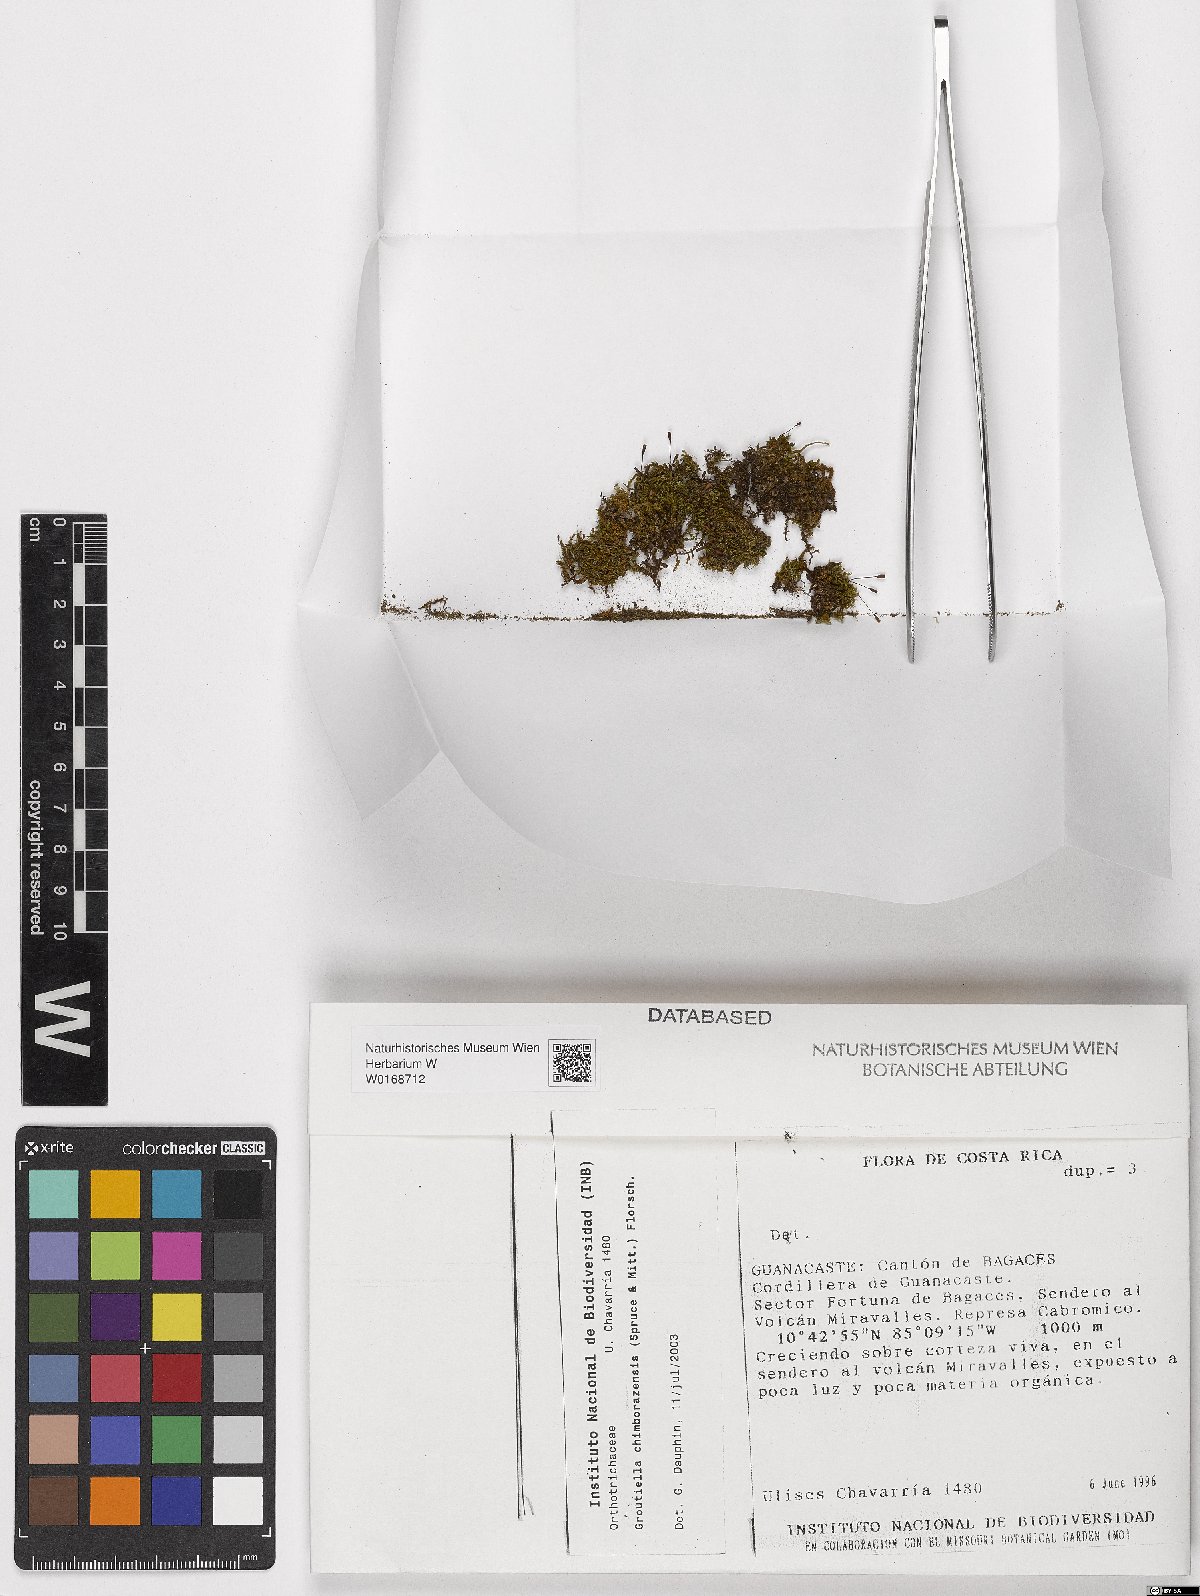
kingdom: Plantae
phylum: Bryophyta
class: Bryopsida
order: Orthotrichales
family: Orthotrichaceae
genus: Groutiella
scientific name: Groutiella chimborazensis
